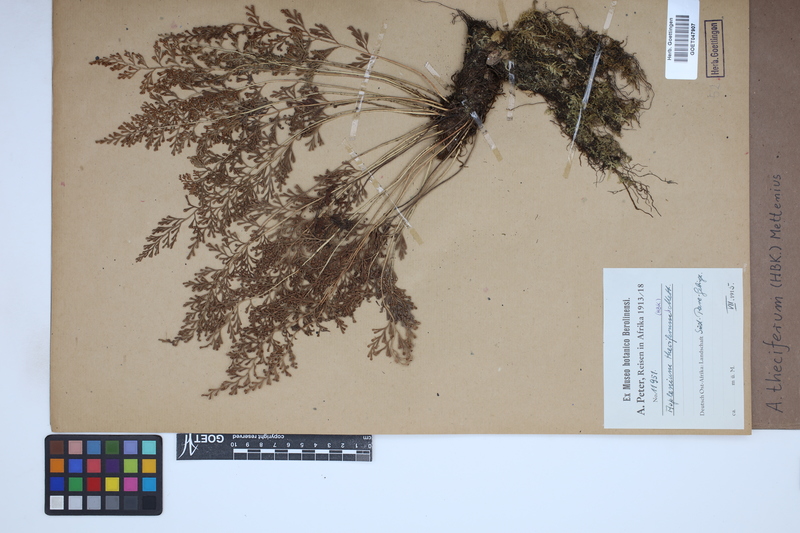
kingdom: Plantae
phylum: Tracheophyta
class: Polypodiopsida
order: Polypodiales
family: Aspleniaceae
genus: Asplenium
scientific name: Asplenium theciferum
